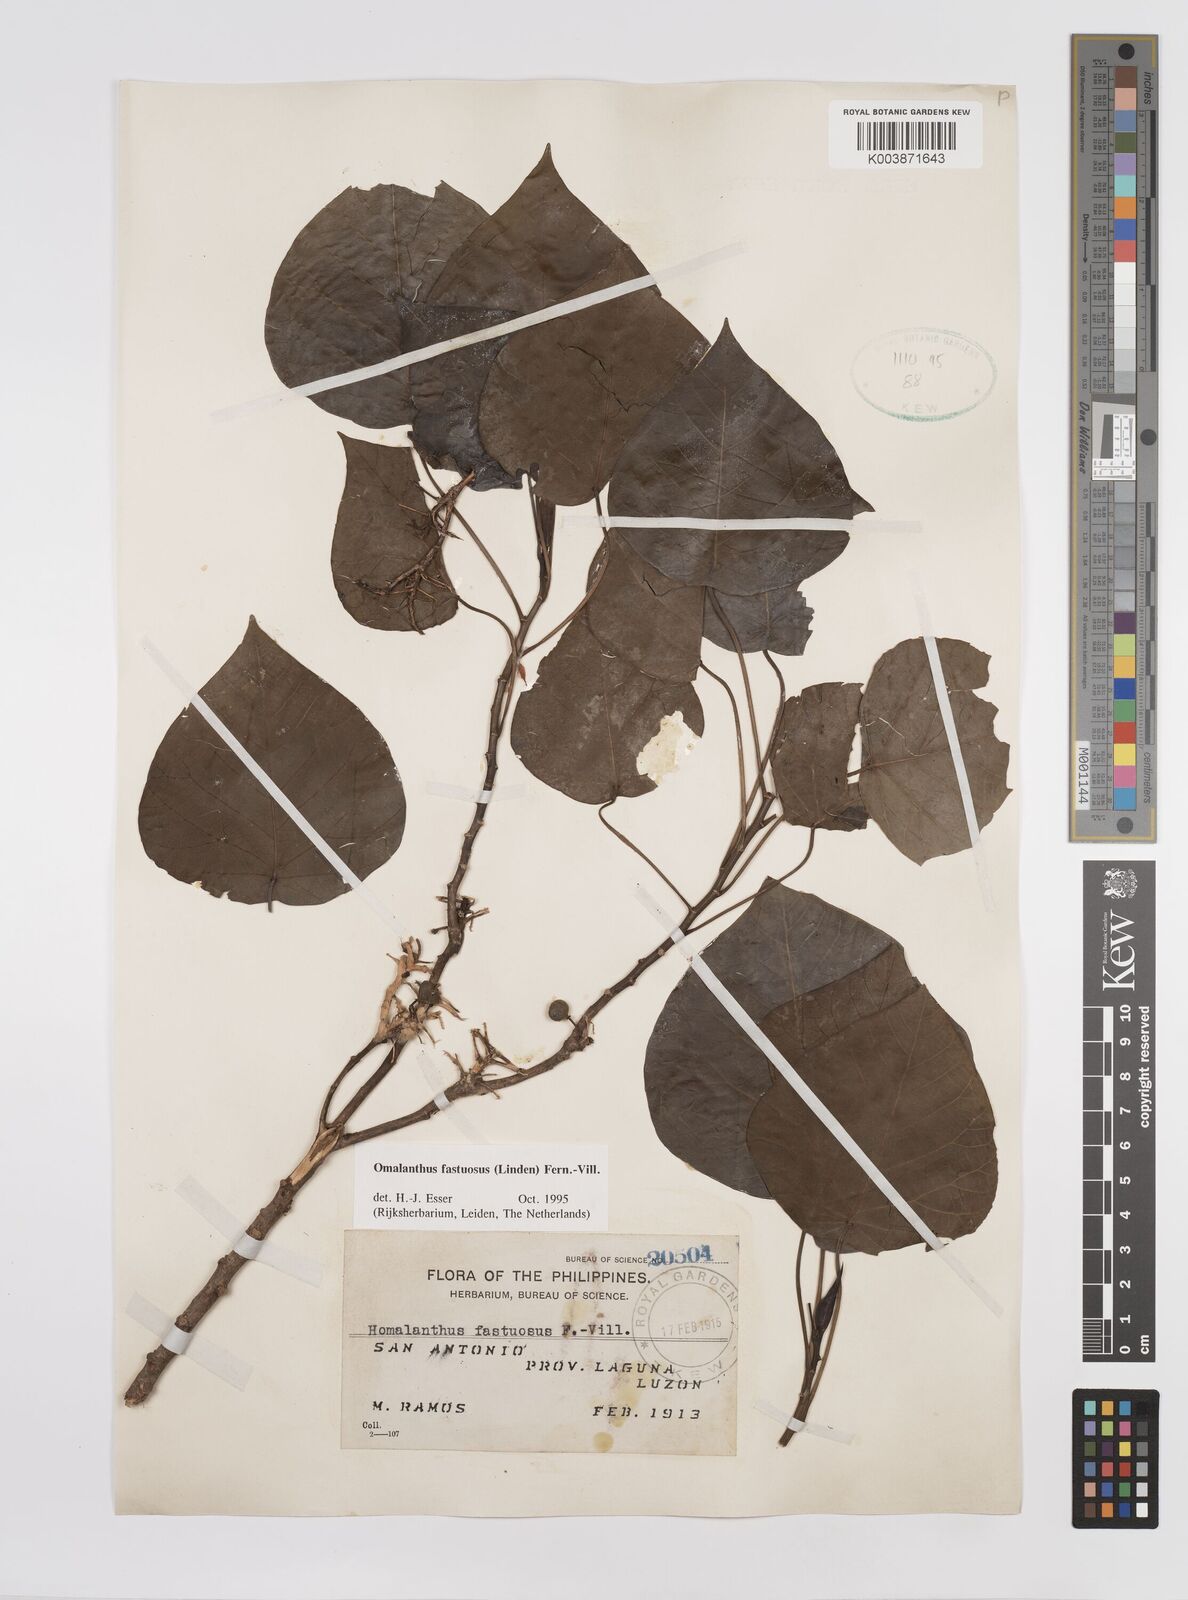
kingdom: Plantae
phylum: Tracheophyta
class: Magnoliopsida
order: Malpighiales
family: Euphorbiaceae
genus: Homalanthus
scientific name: Homalanthus fastuosus
